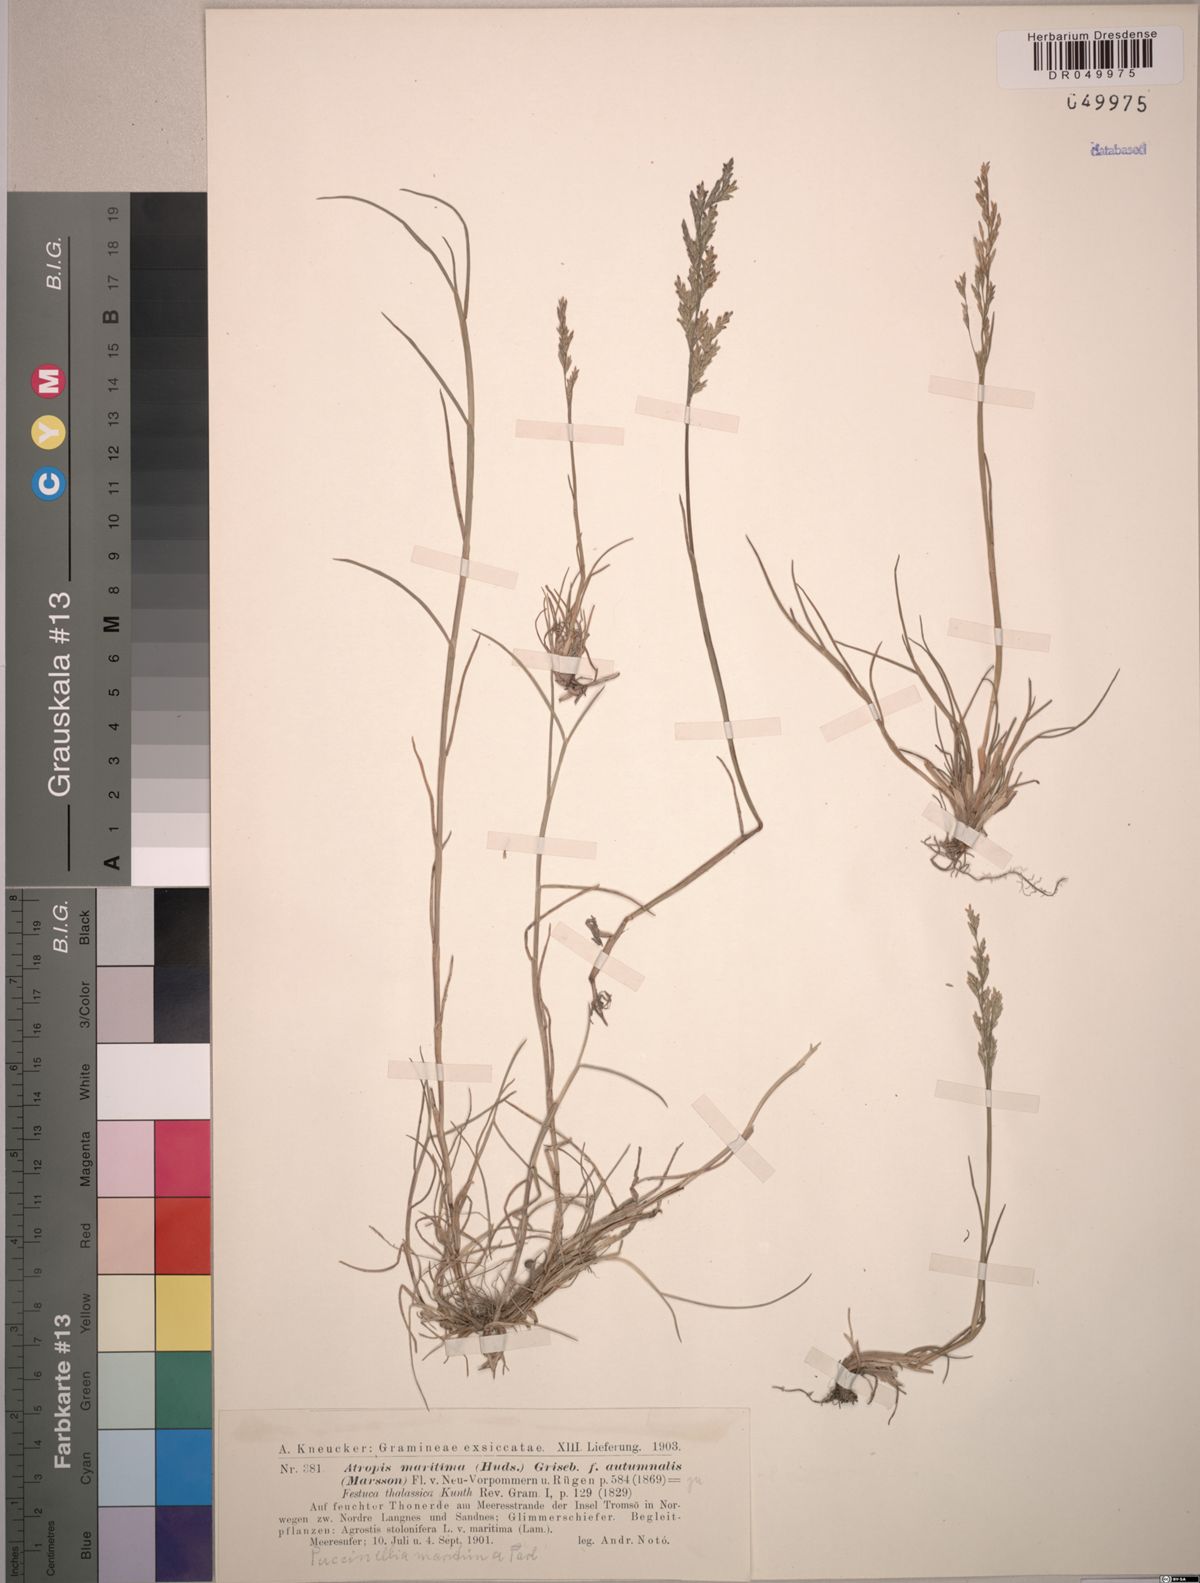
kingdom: Plantae
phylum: Tracheophyta
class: Liliopsida
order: Poales
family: Poaceae
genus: Puccinellia
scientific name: Puccinellia maritima
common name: Common saltmarsh grass
